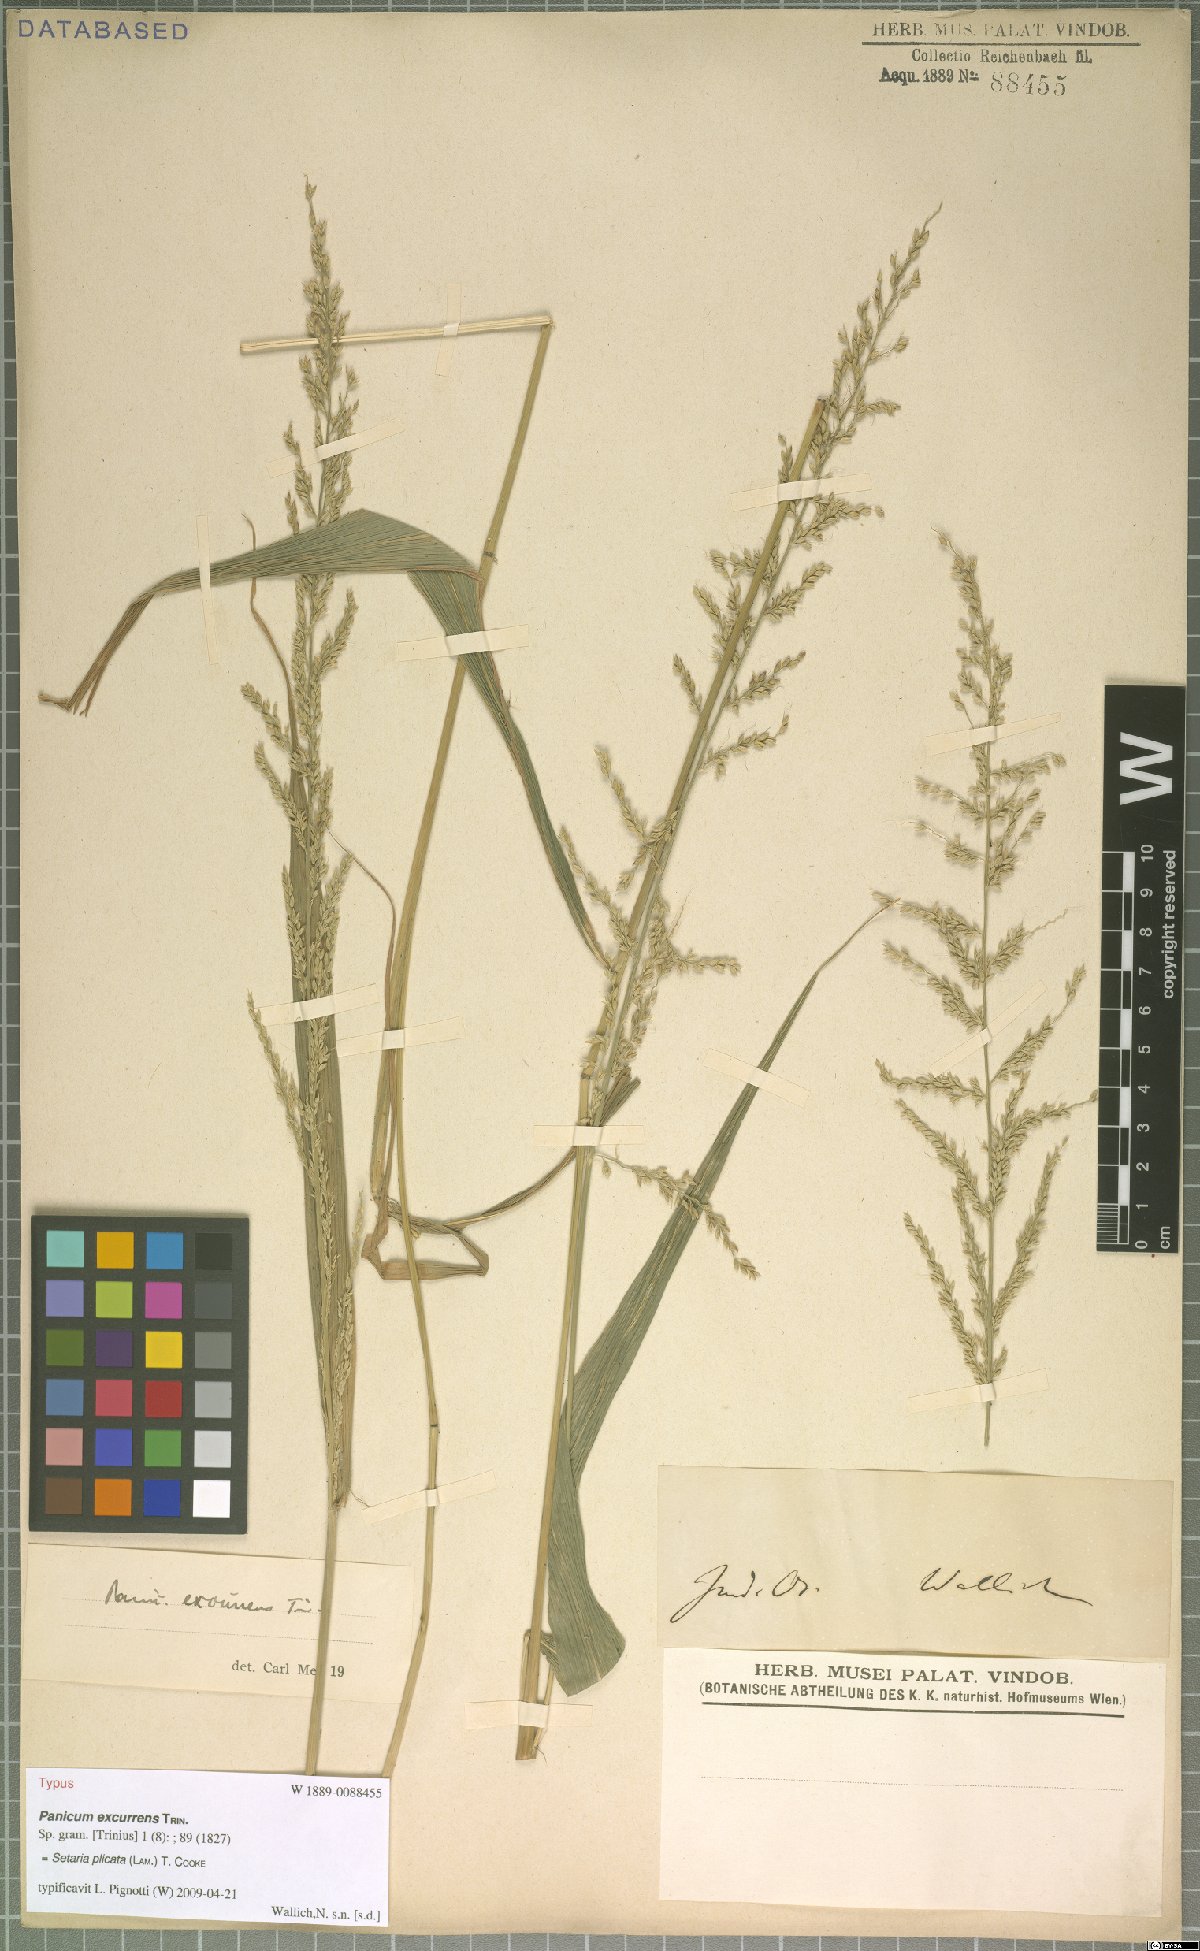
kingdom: Plantae
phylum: Tracheophyta
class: Liliopsida
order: Poales
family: Poaceae
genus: Setaria
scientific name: Setaria plicata
